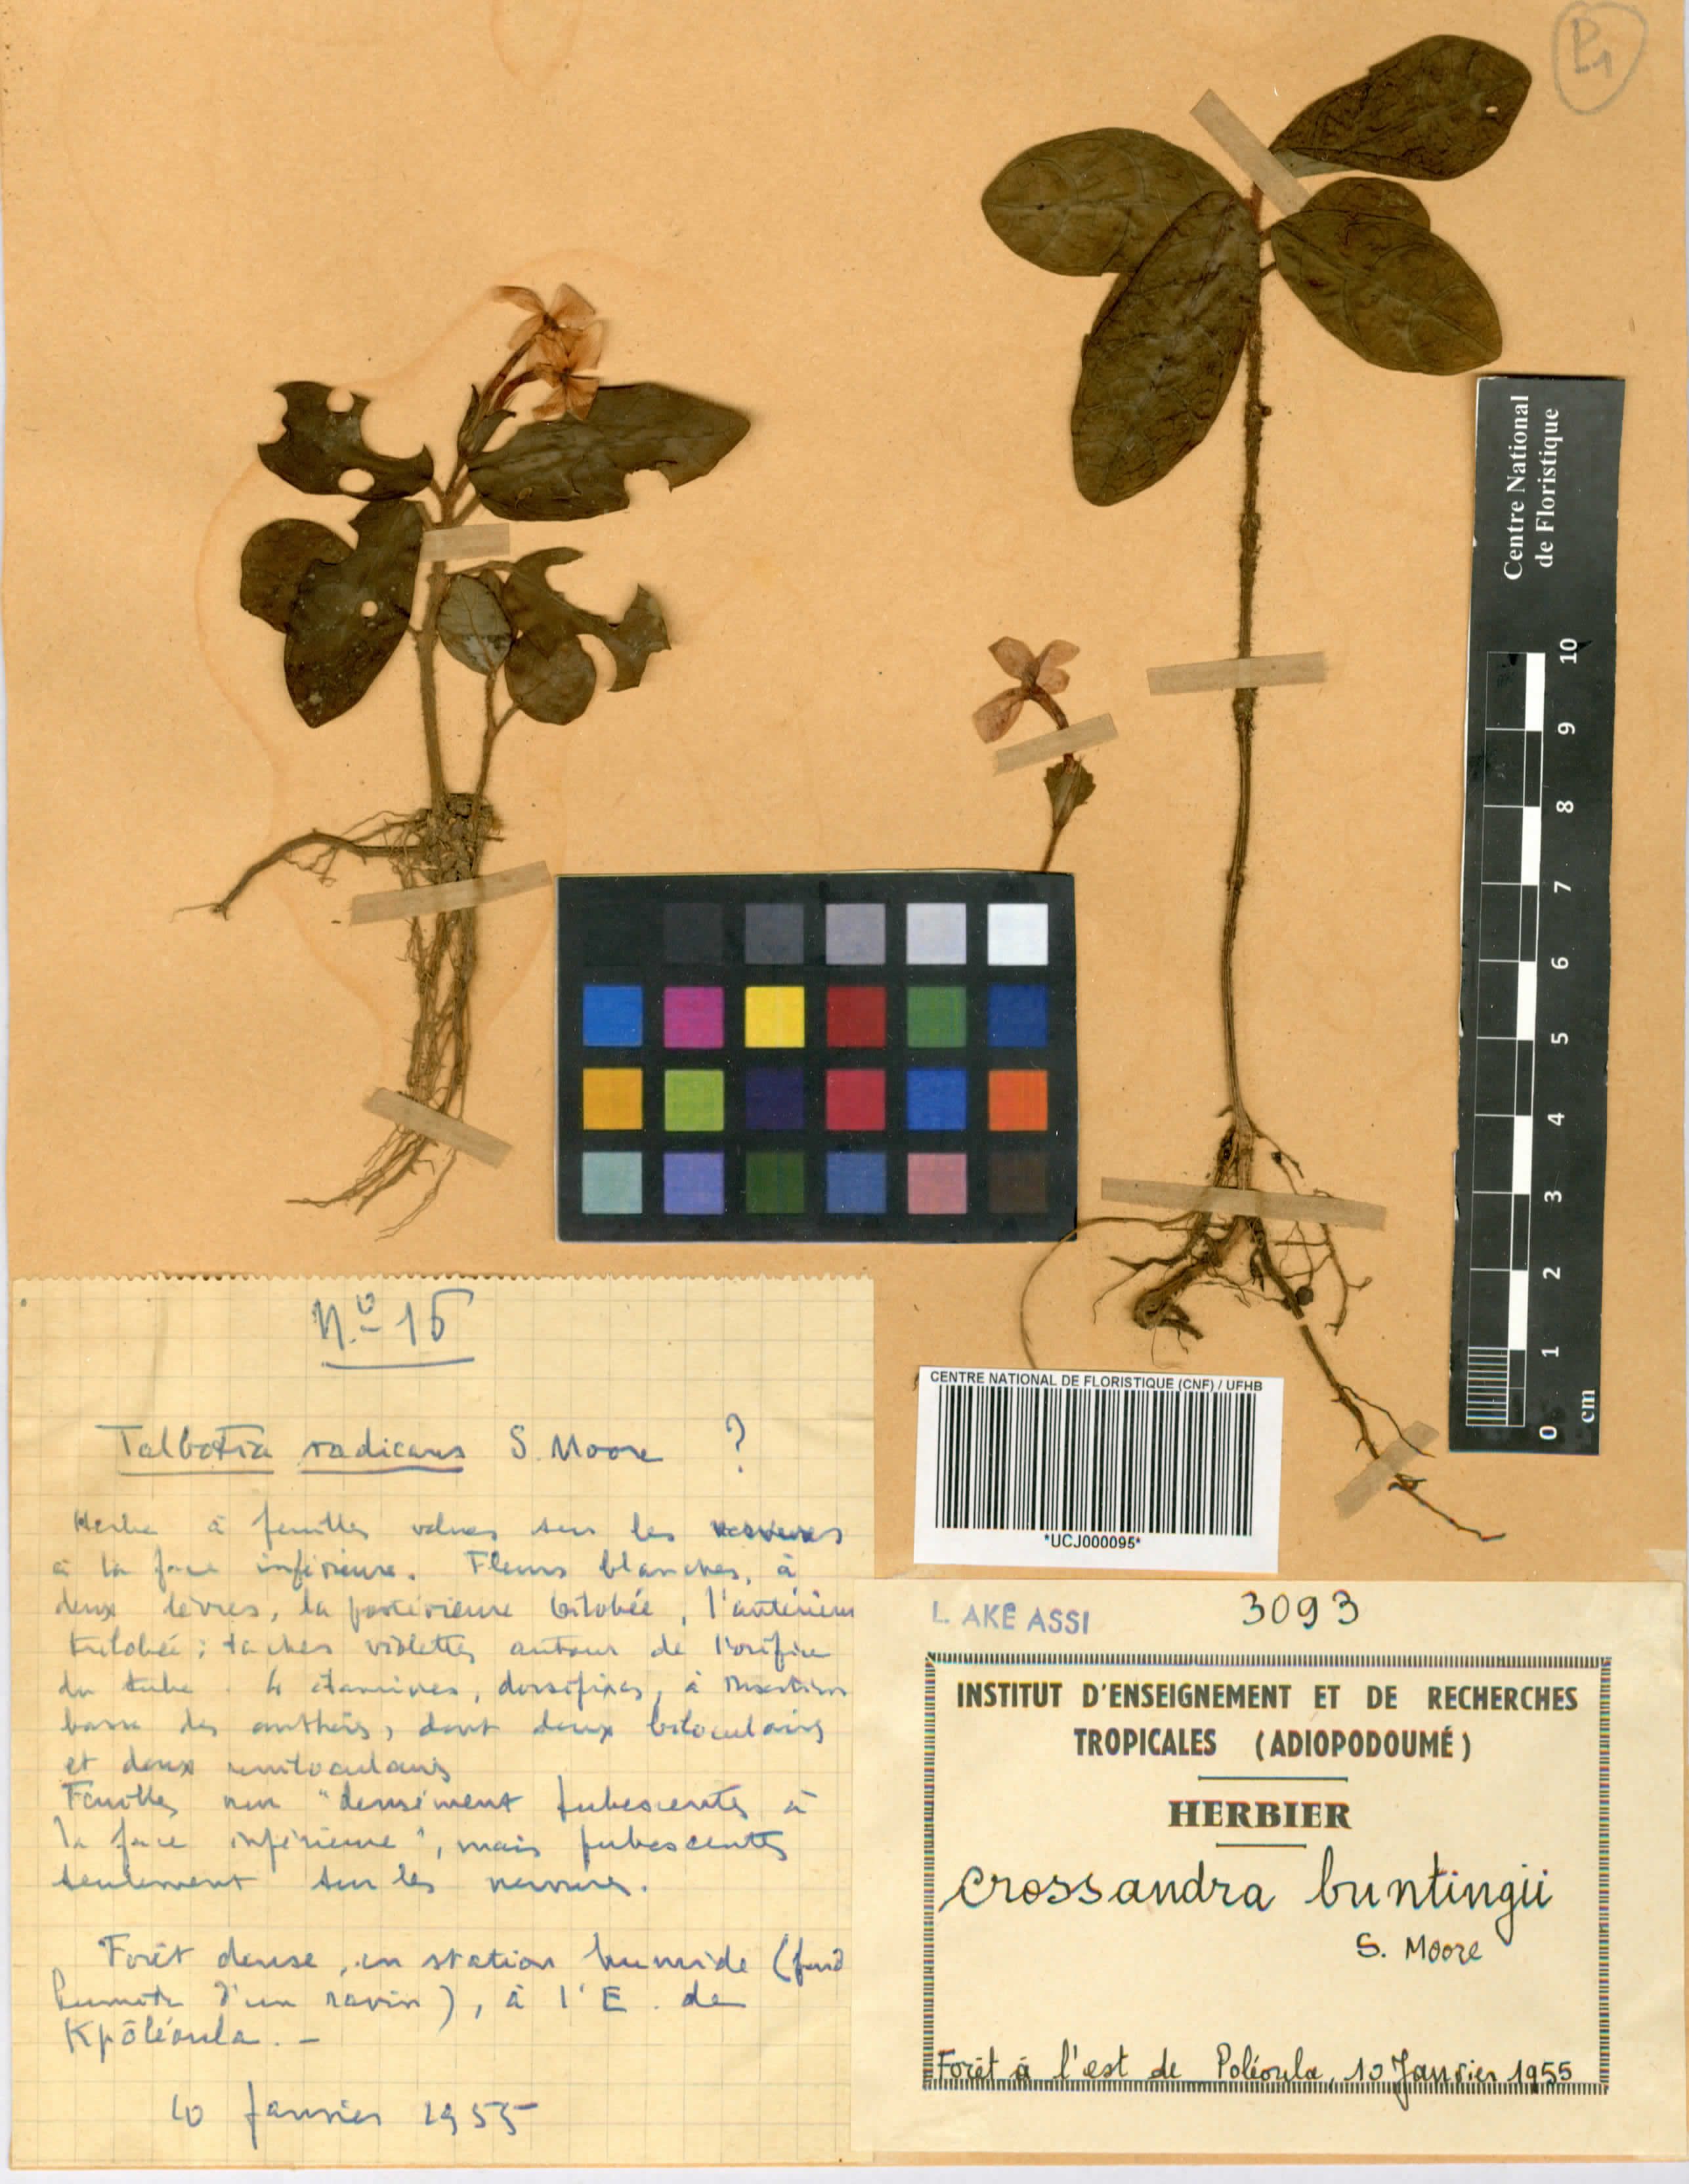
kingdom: Plantae
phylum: Tracheophyta
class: Magnoliopsida
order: Lamiales
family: Acanthaceae
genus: Stenandriopsis
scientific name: Stenandriopsis buntingii
